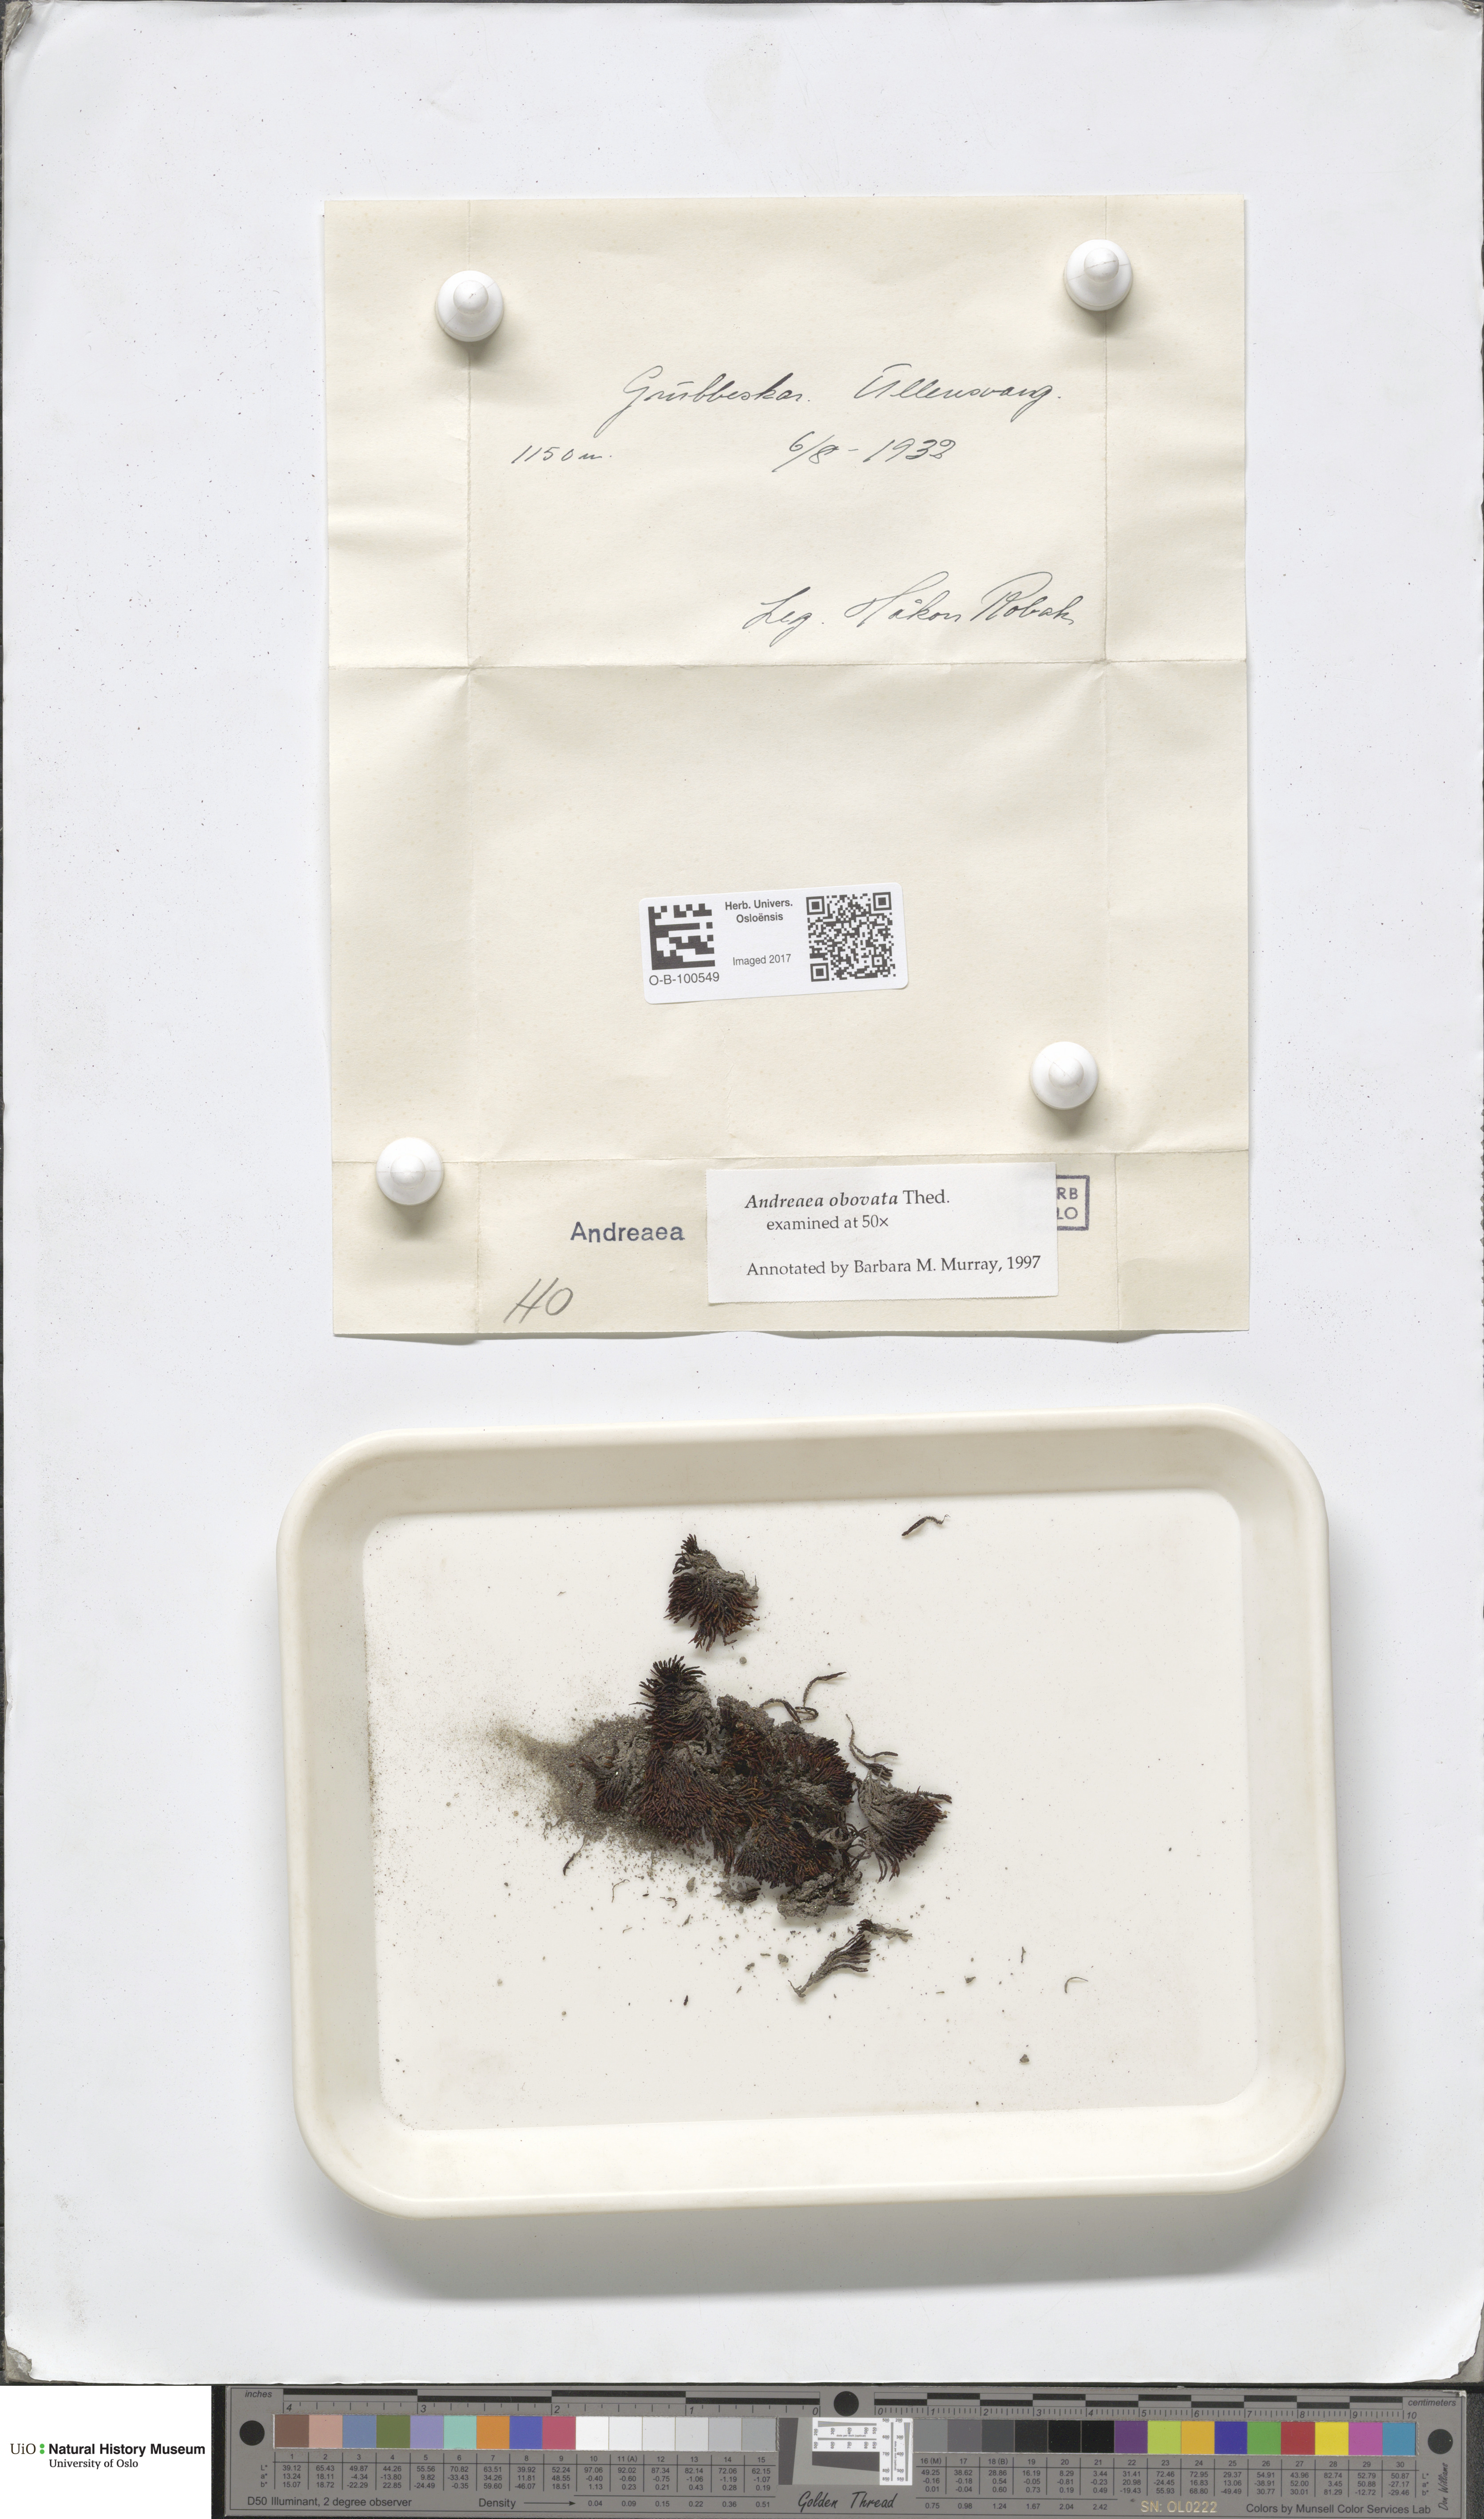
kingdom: Plantae
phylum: Bryophyta
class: Andreaeopsida
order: Andreaeales
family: Andreaeaceae
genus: Andreaea
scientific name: Andreaea alpina
